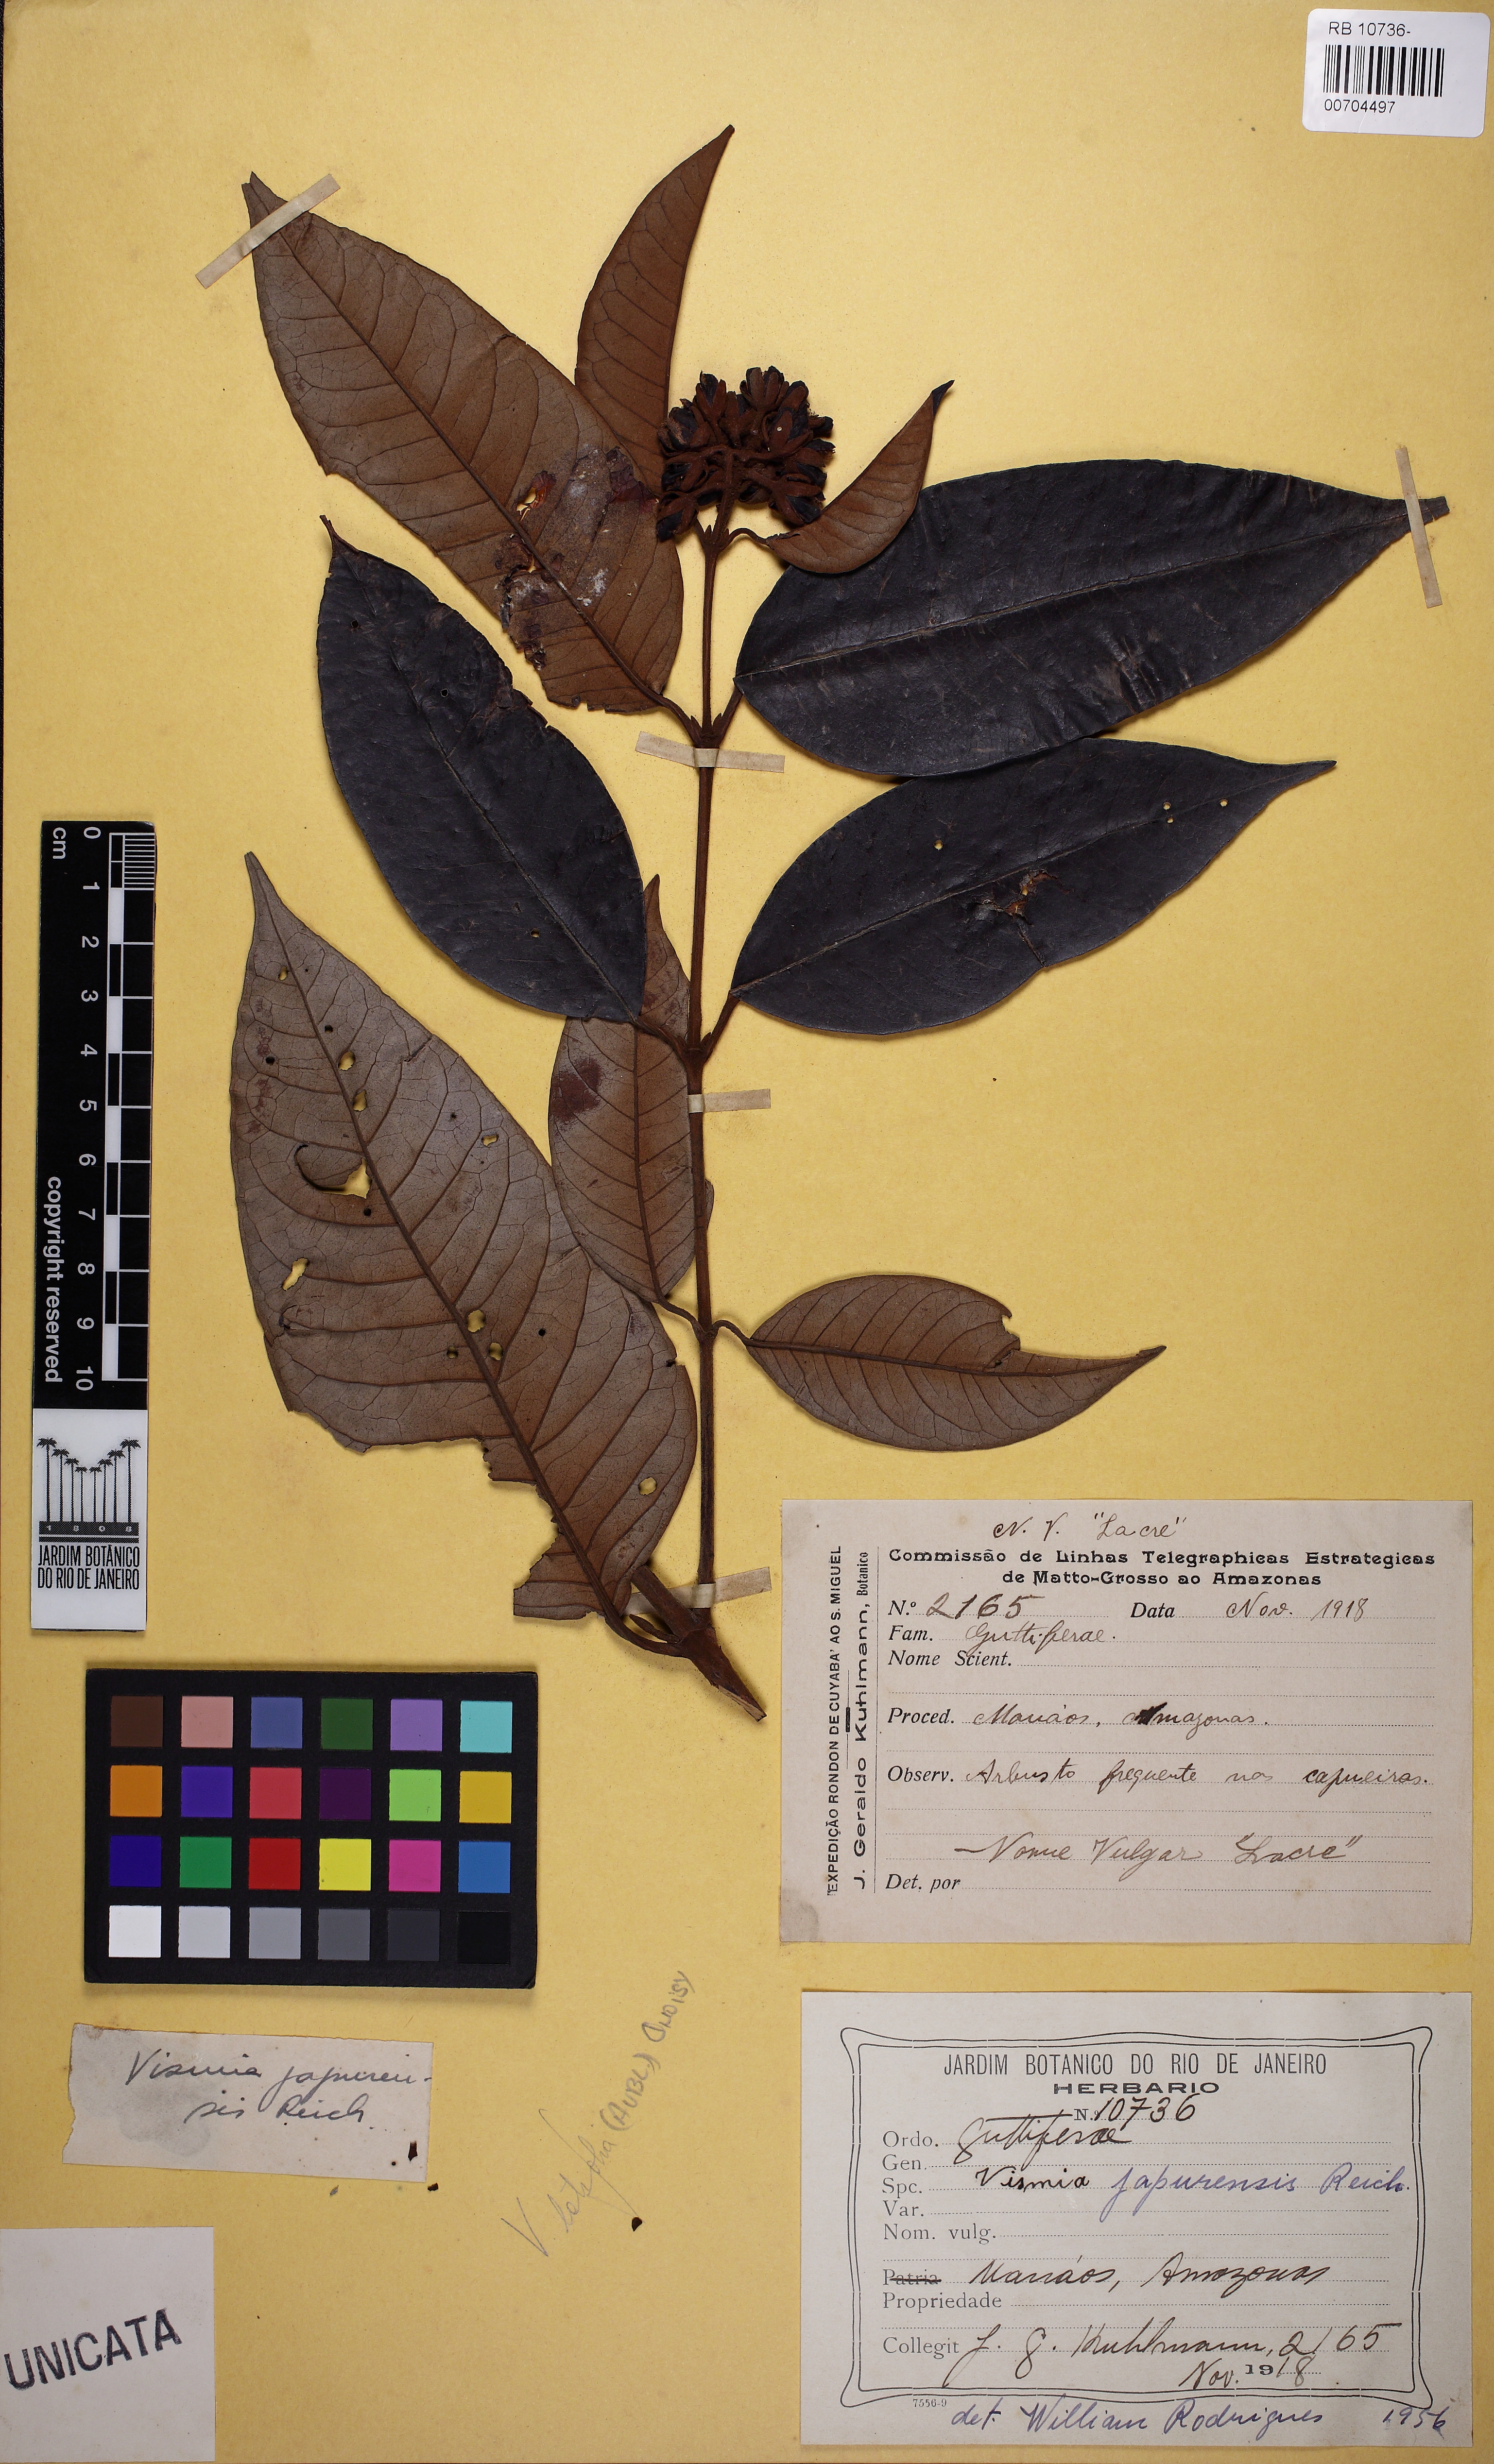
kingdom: Plantae
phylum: Tracheophyta
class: Magnoliopsida
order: Malpighiales
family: Hypericaceae
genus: Vismia
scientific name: Vismia japurensis
